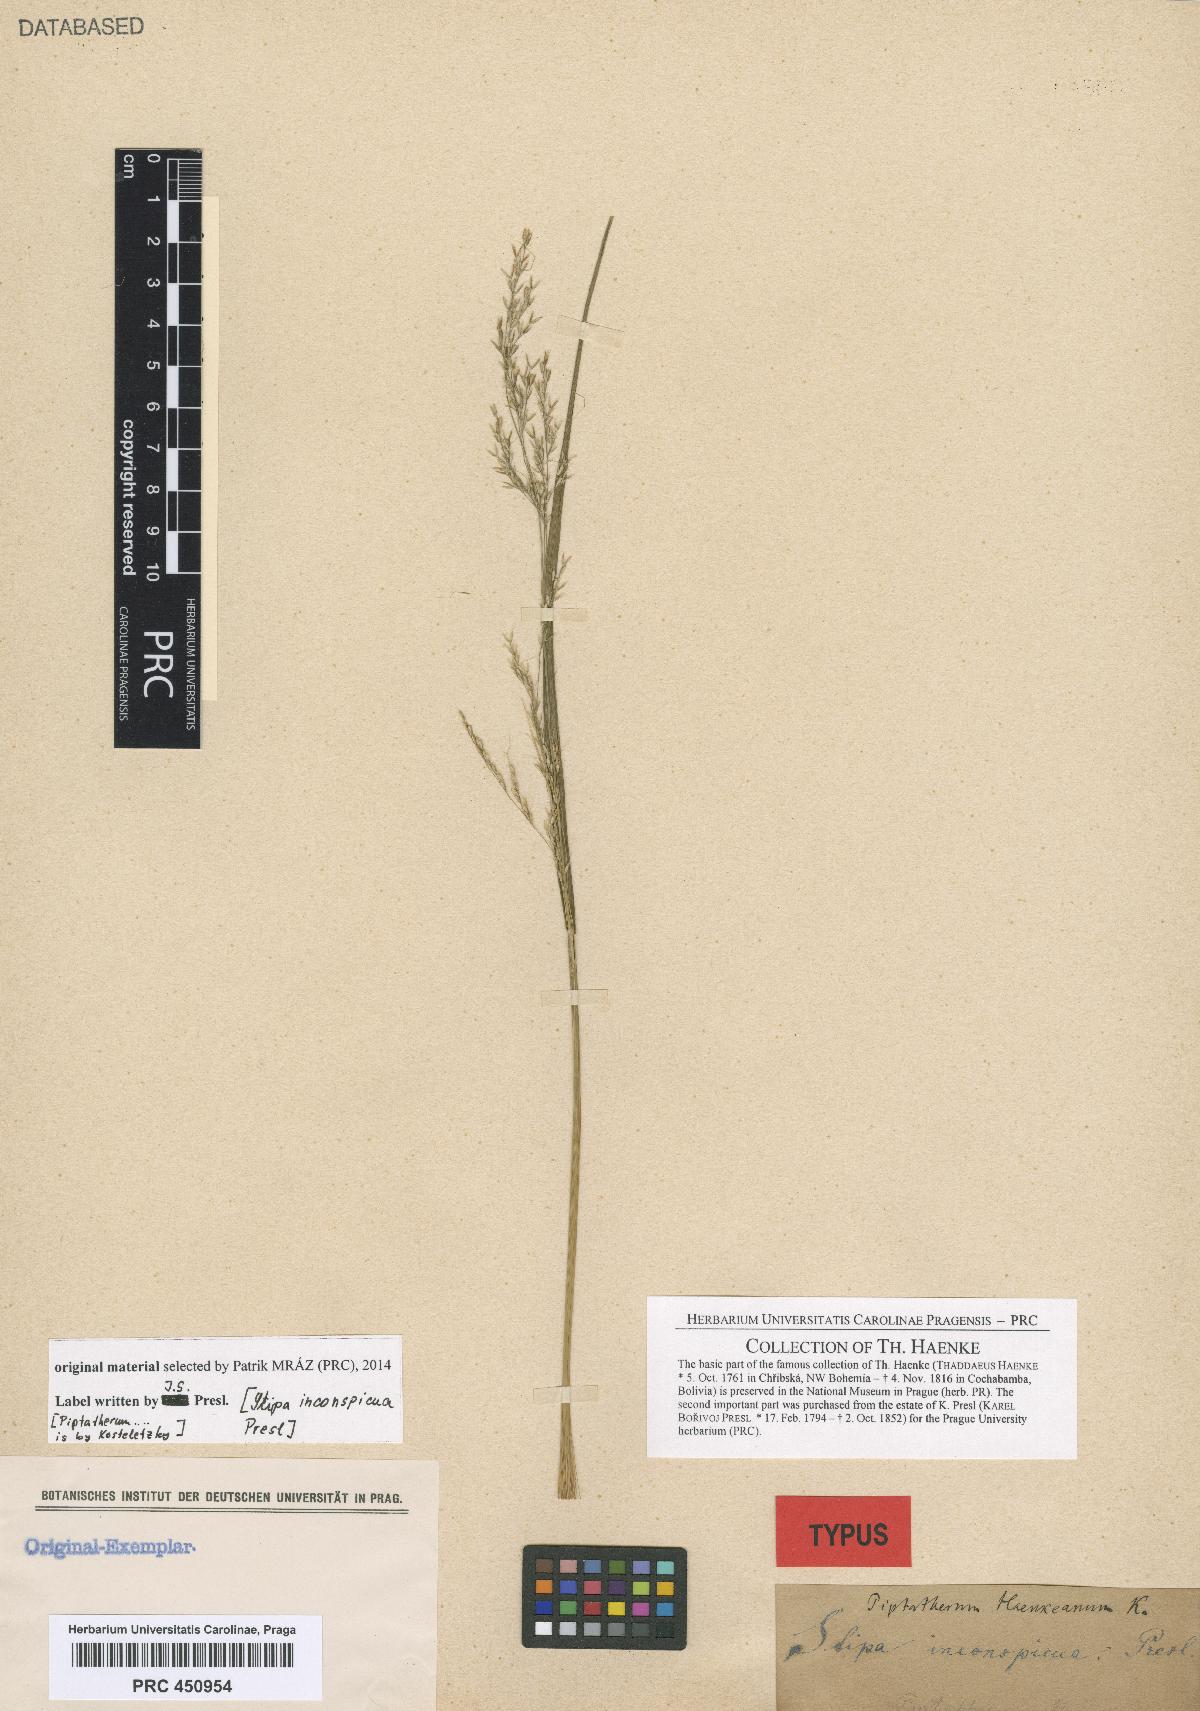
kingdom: Plantae
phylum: Tracheophyta
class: Liliopsida
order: Poales
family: Poaceae
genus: Nassella
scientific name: Nassella inconspicua
